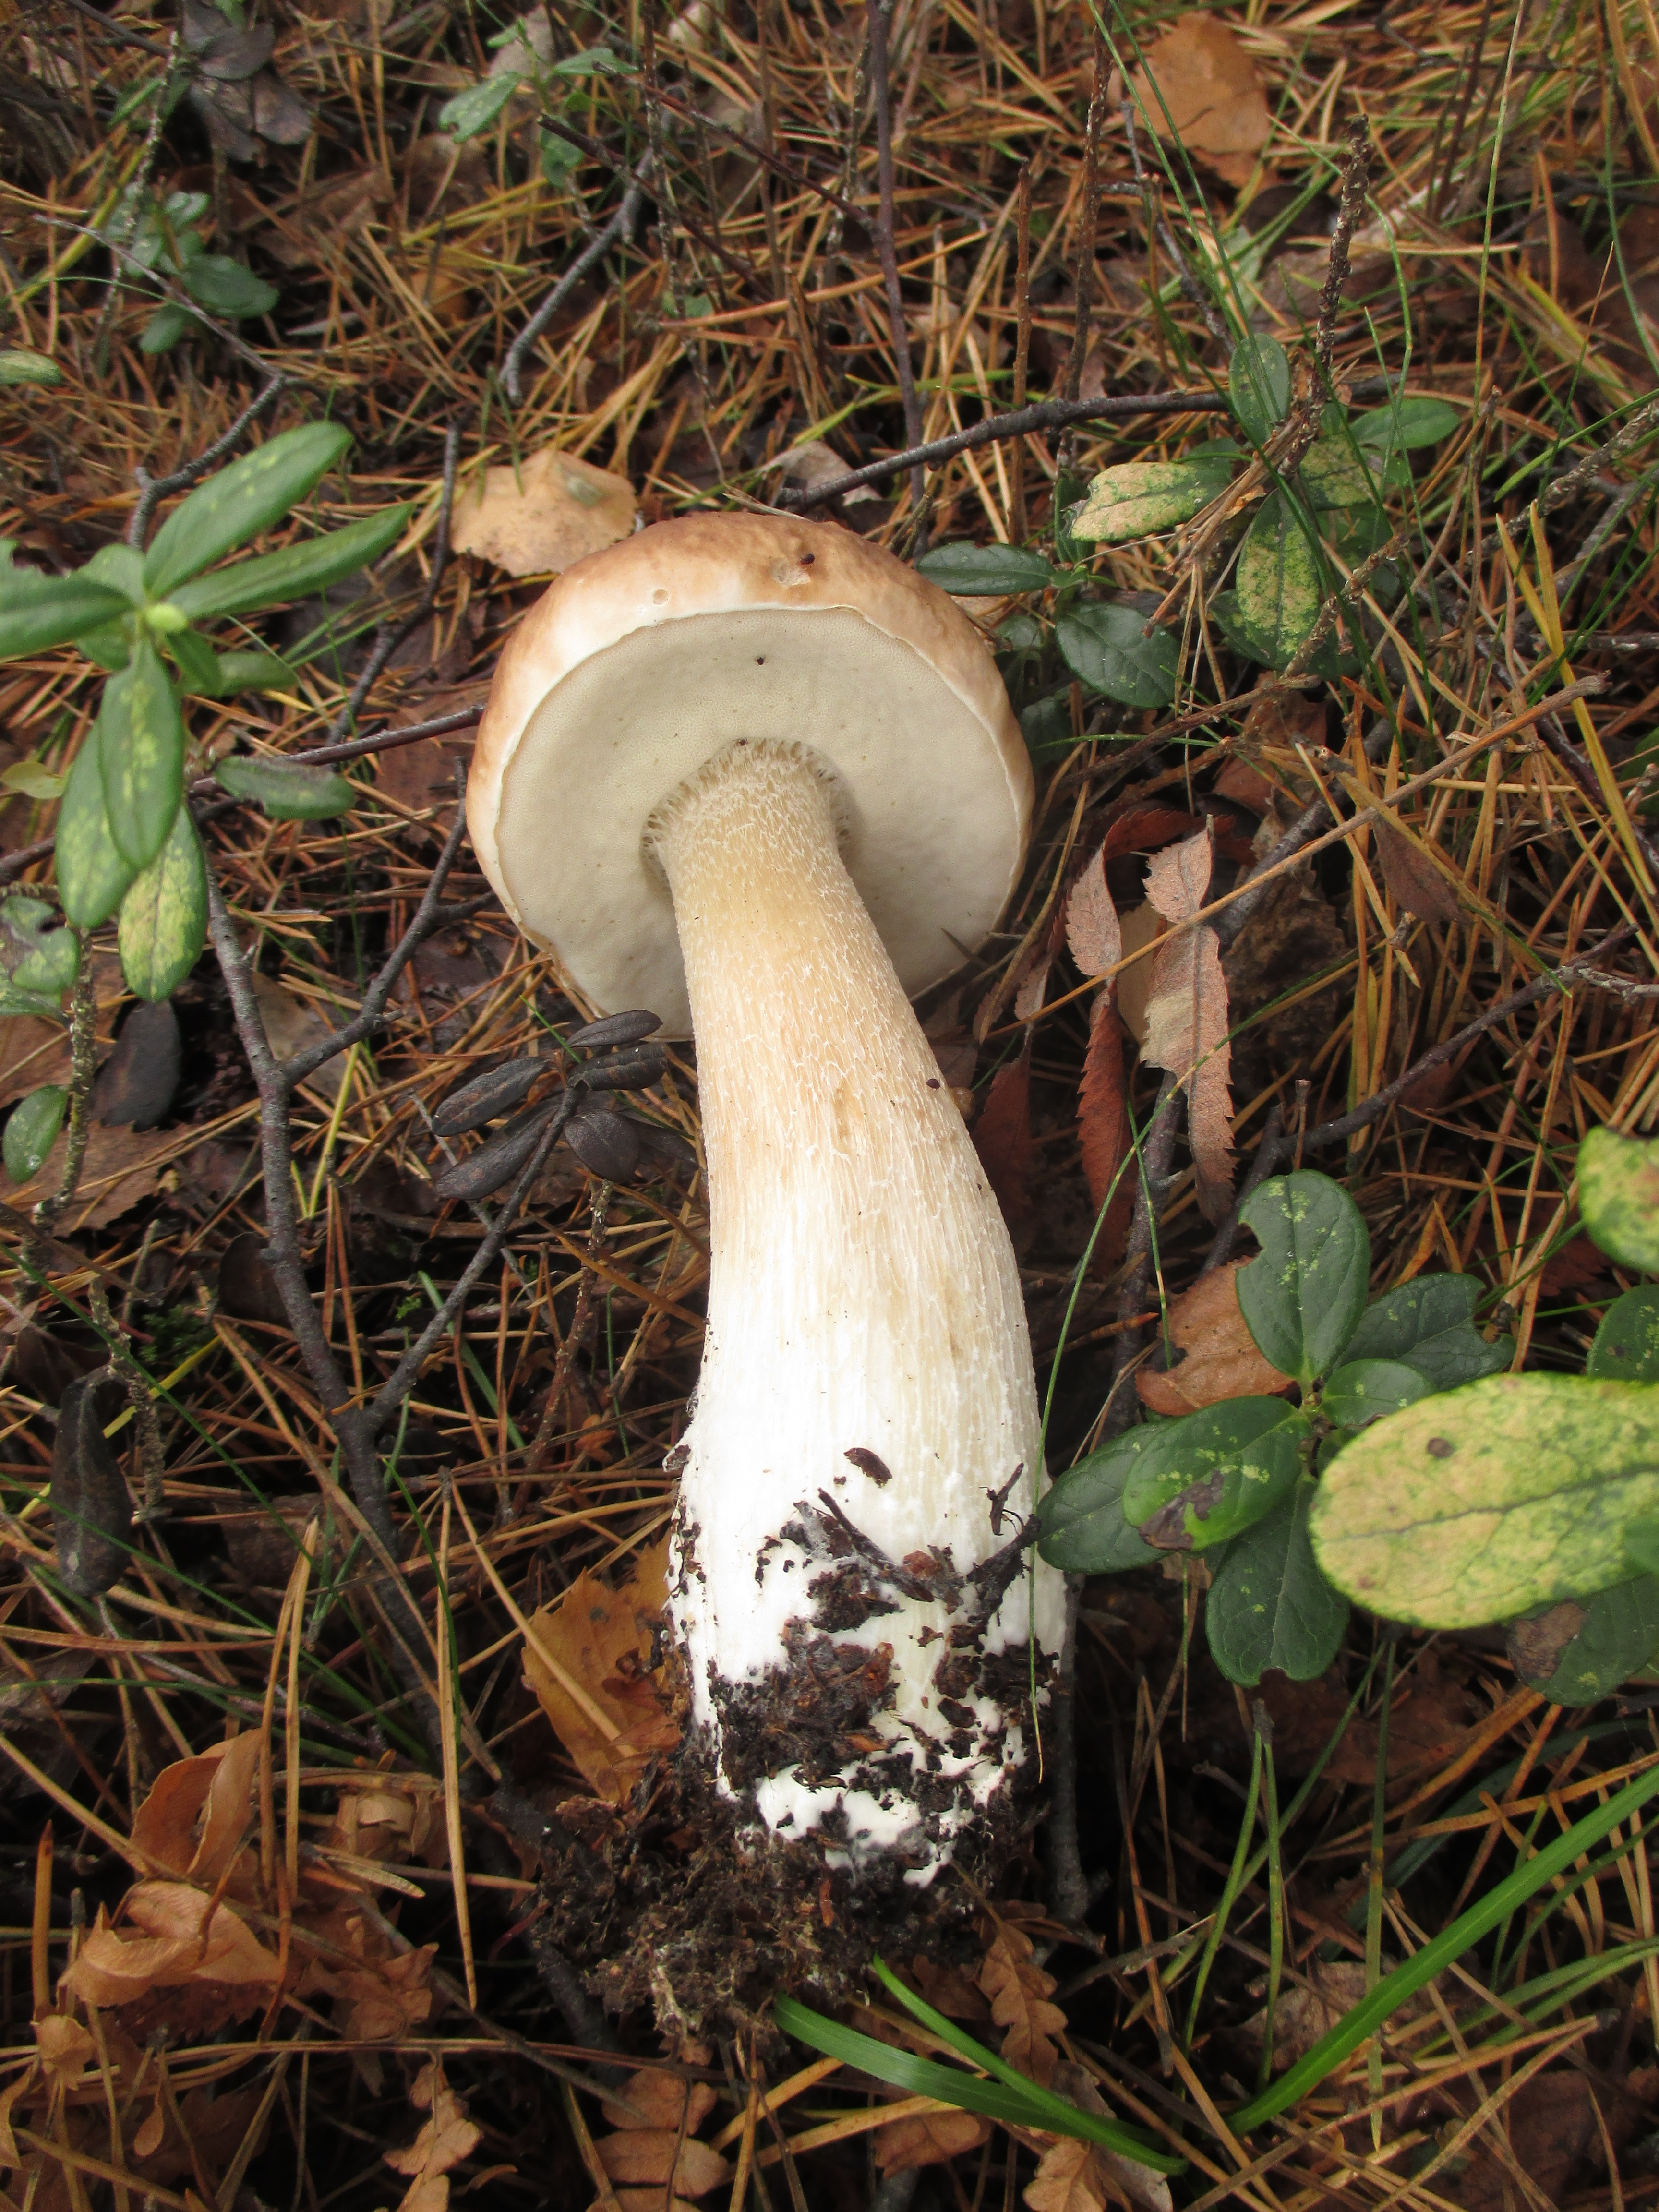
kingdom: Fungi
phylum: Basidiomycota
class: Agaricomycetes
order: Boletales
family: Boletaceae
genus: Boletus
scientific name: Boletus edulis
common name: Cep
